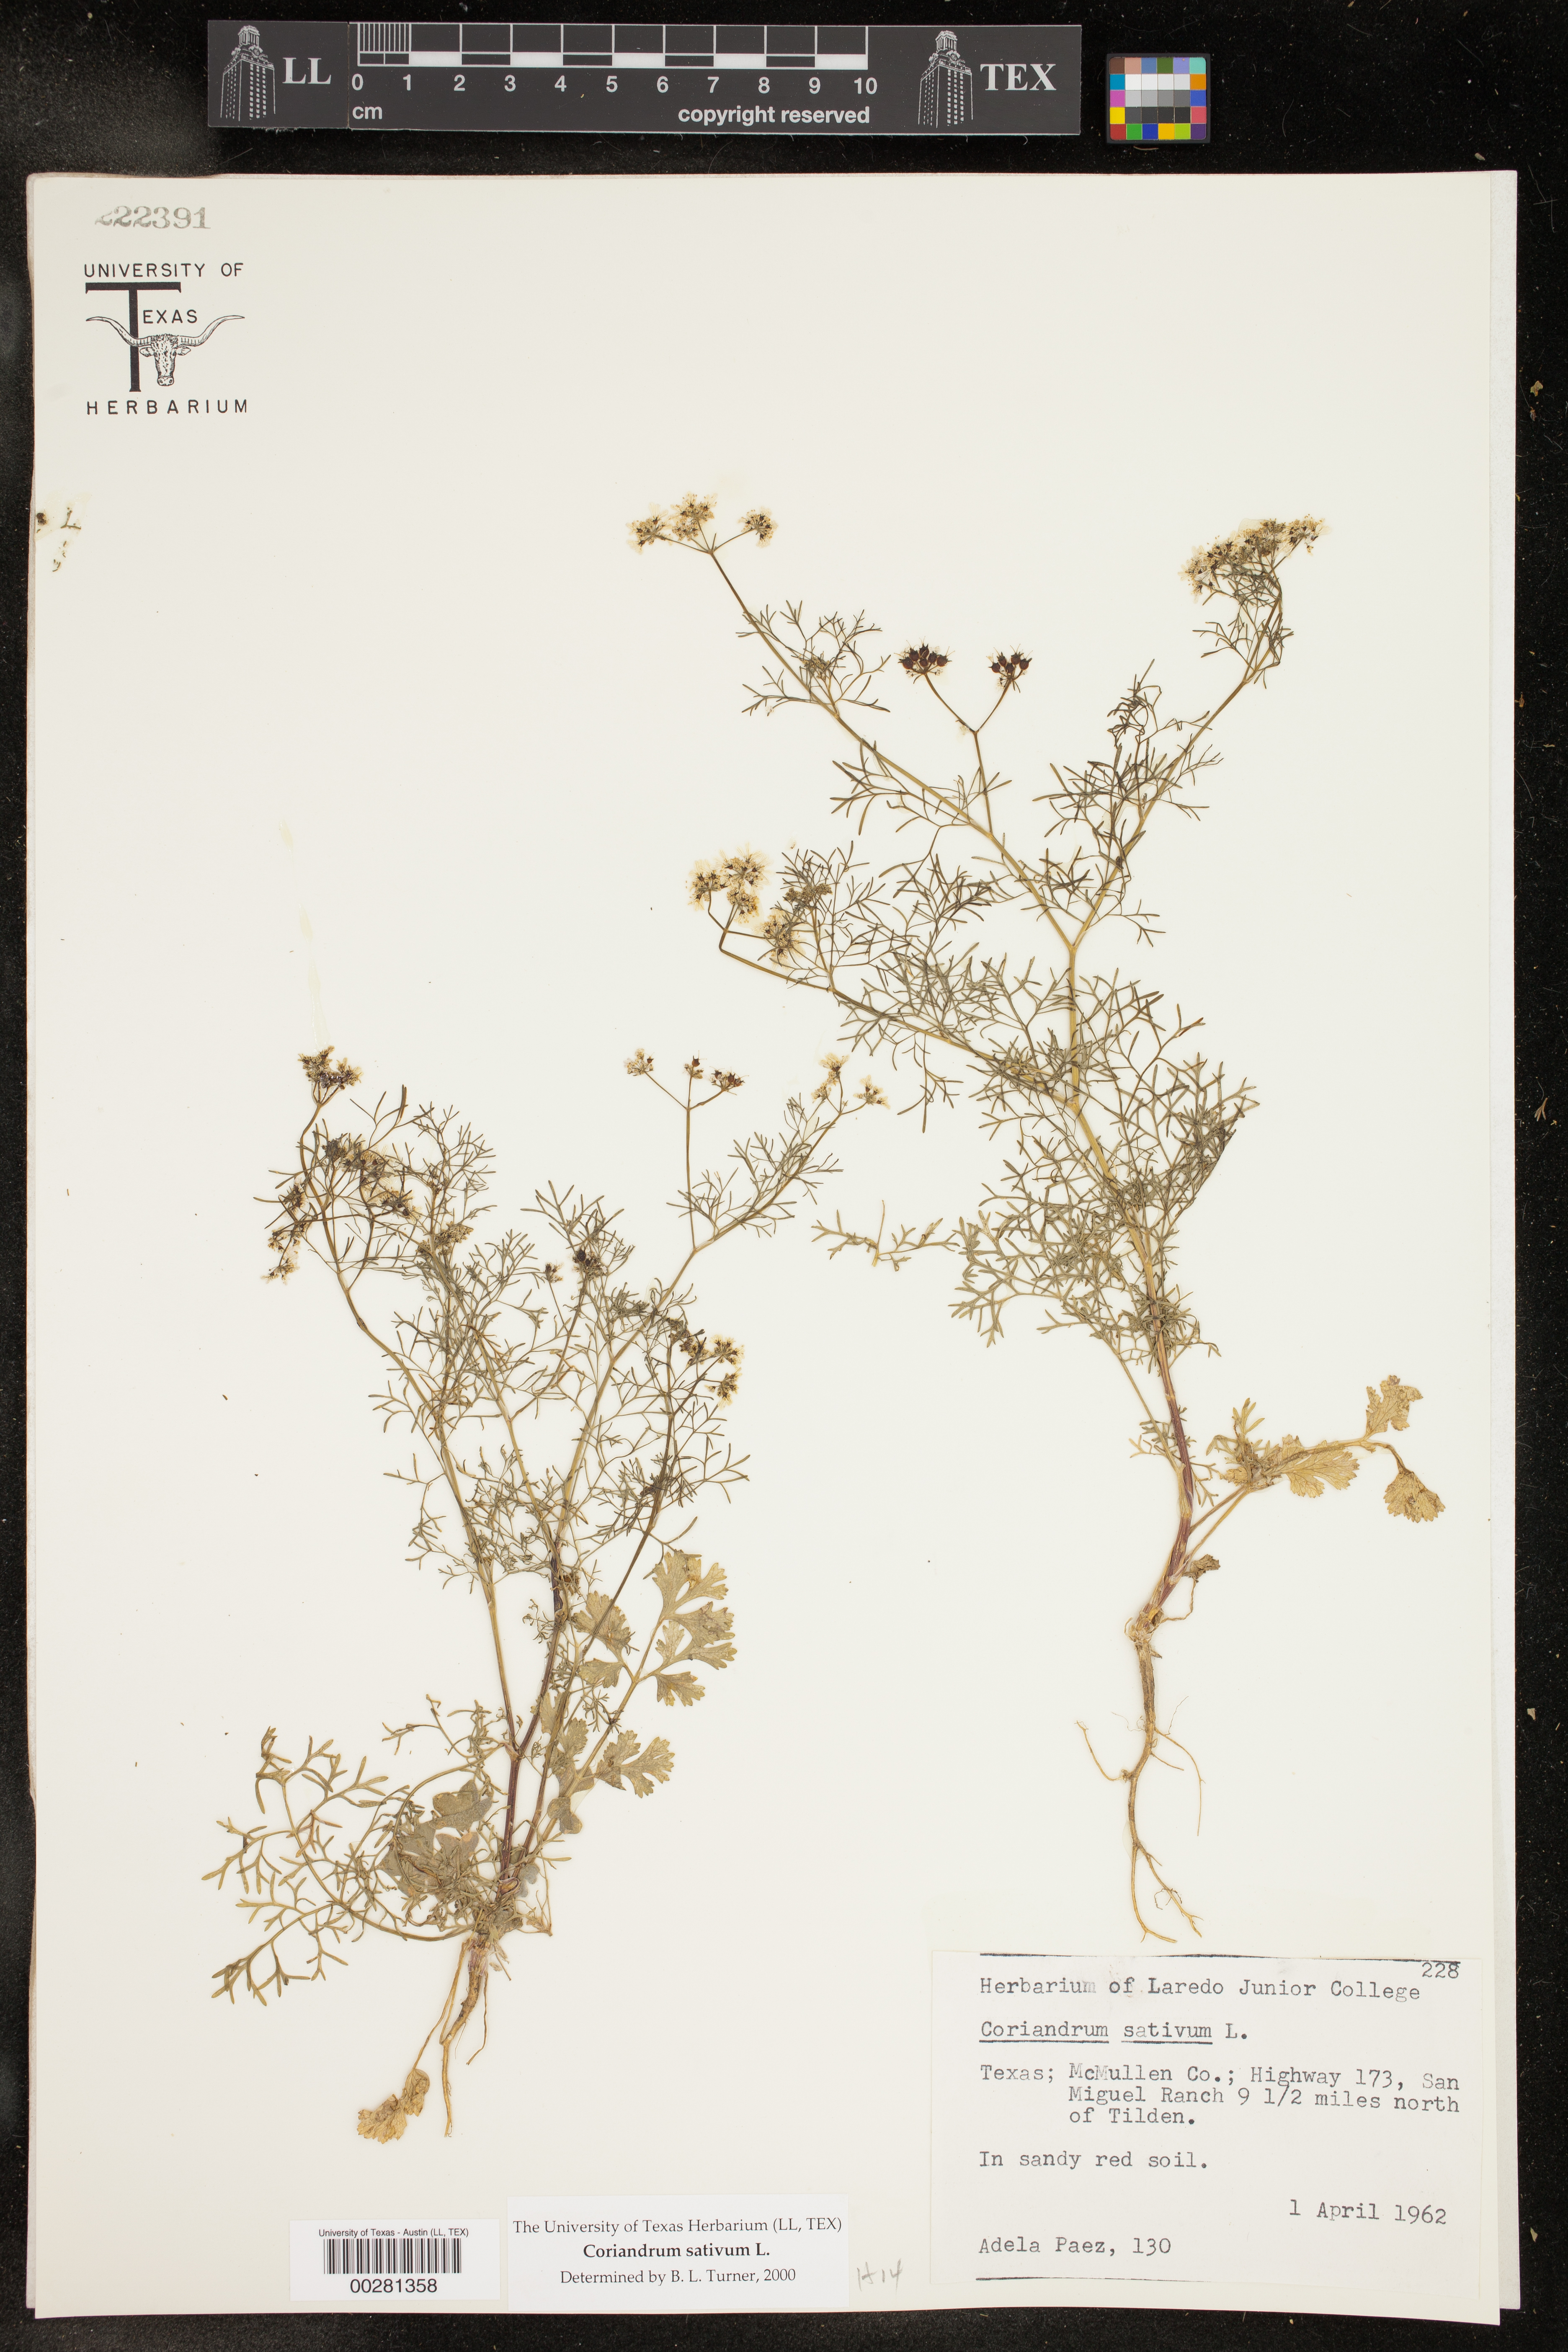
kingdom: Plantae
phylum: Tracheophyta
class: Magnoliopsida
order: Apiales
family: Apiaceae
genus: Coriandrum
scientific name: Coriandrum sativum
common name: Coriander
